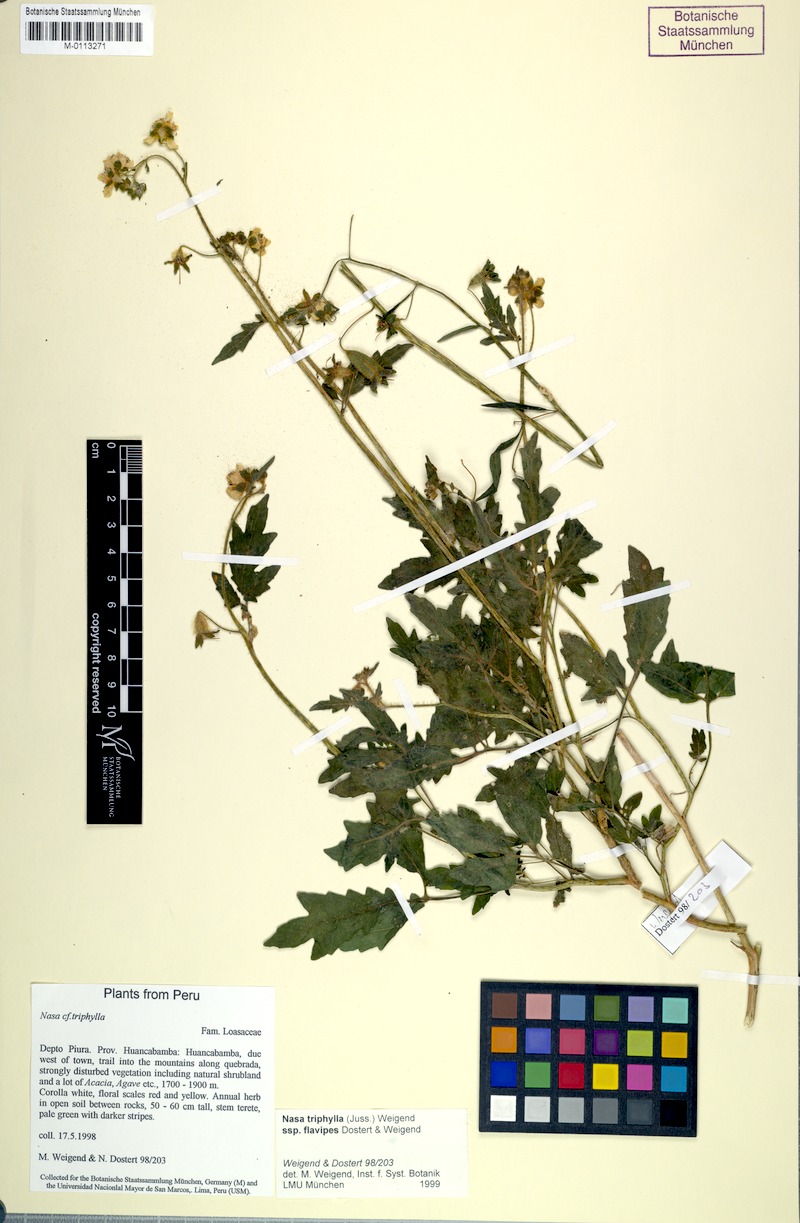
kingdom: Plantae
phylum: Tracheophyta
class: Magnoliopsida
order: Cornales
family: Loasaceae
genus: Nasa
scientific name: Nasa triphylla
